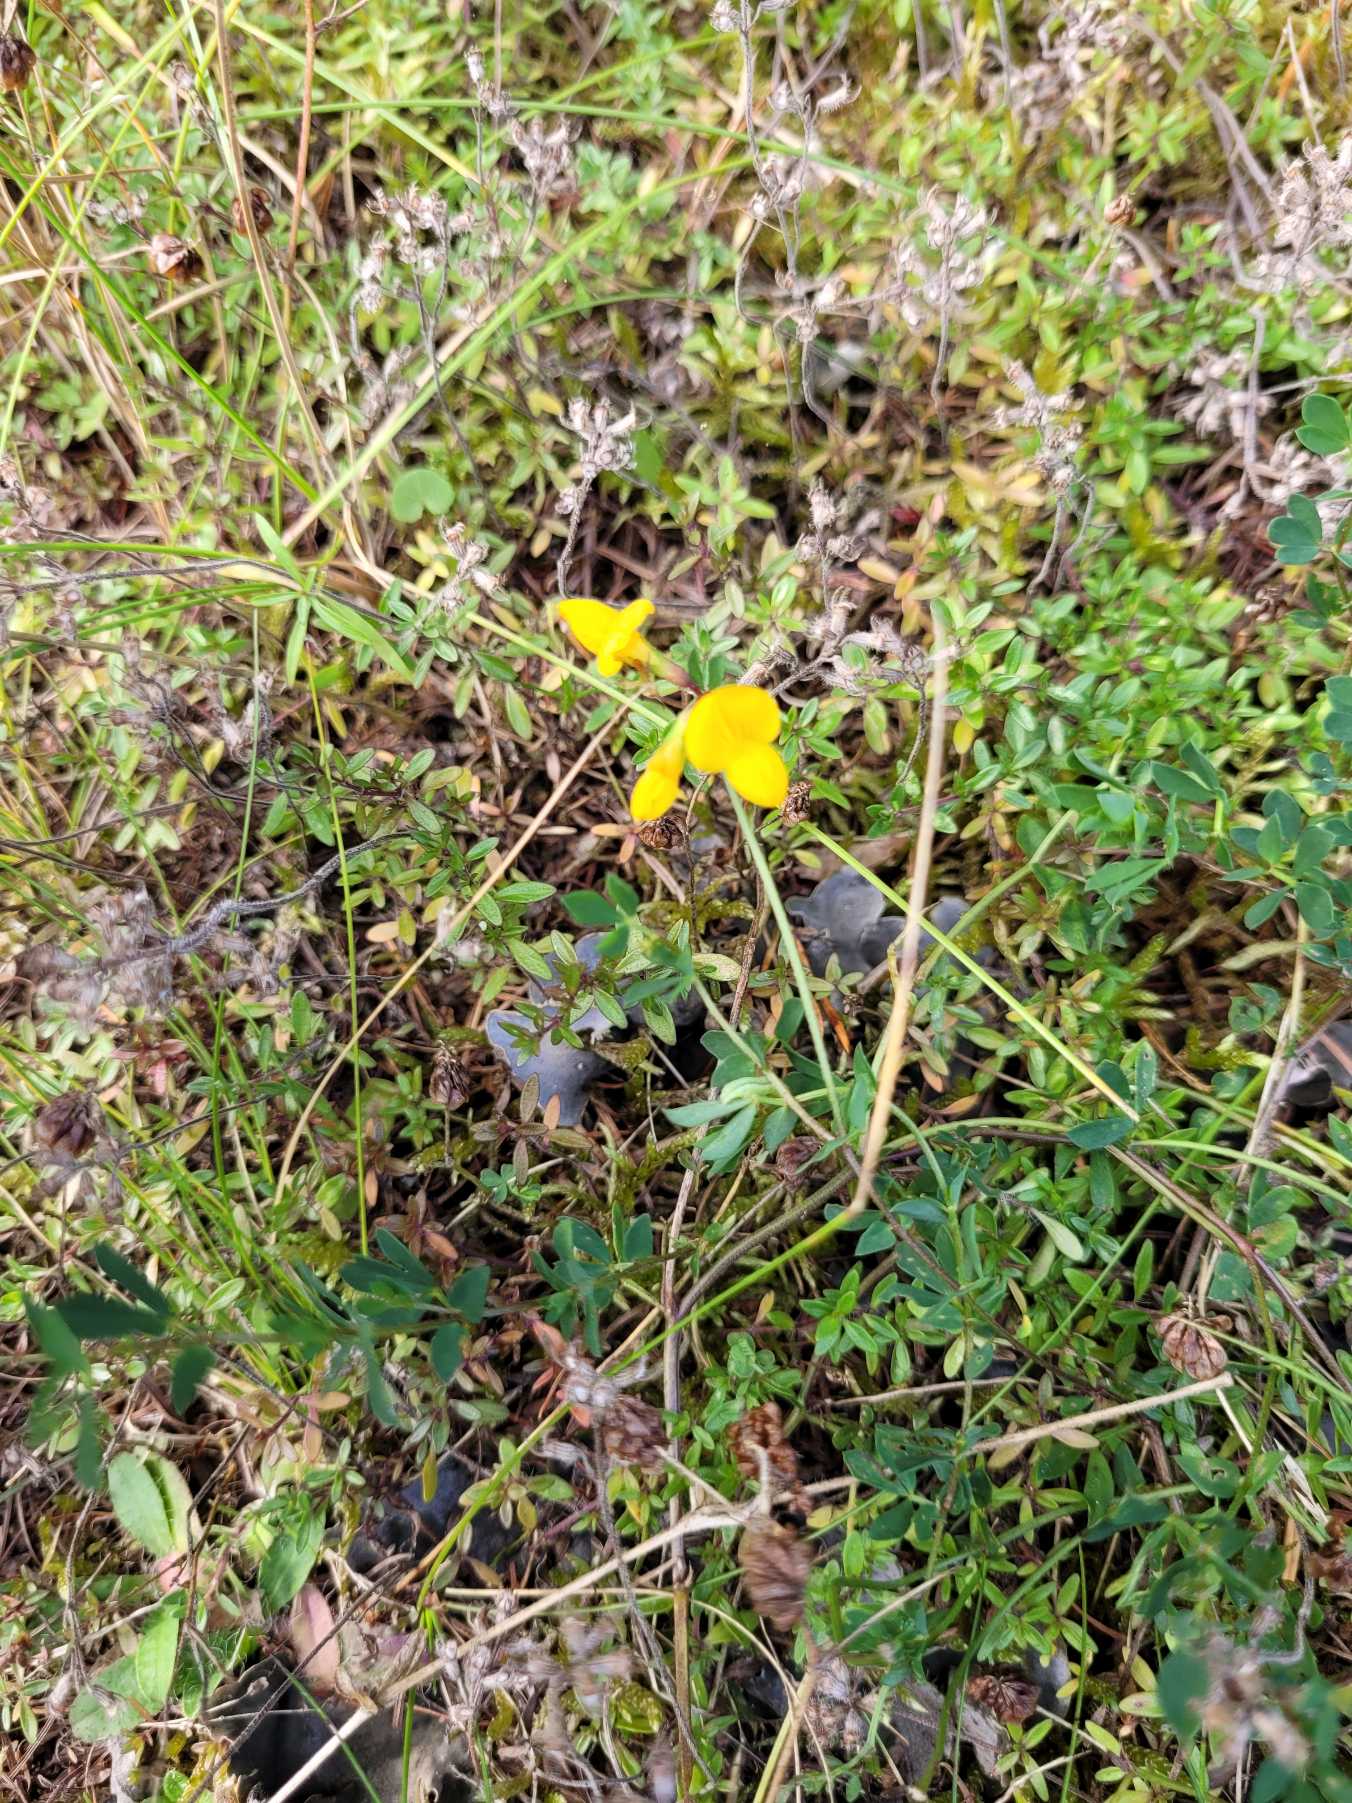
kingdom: Plantae
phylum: Tracheophyta
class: Magnoliopsida
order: Fabales
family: Fabaceae
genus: Lotus
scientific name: Lotus corniculatus
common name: Almindelig kællingetand
